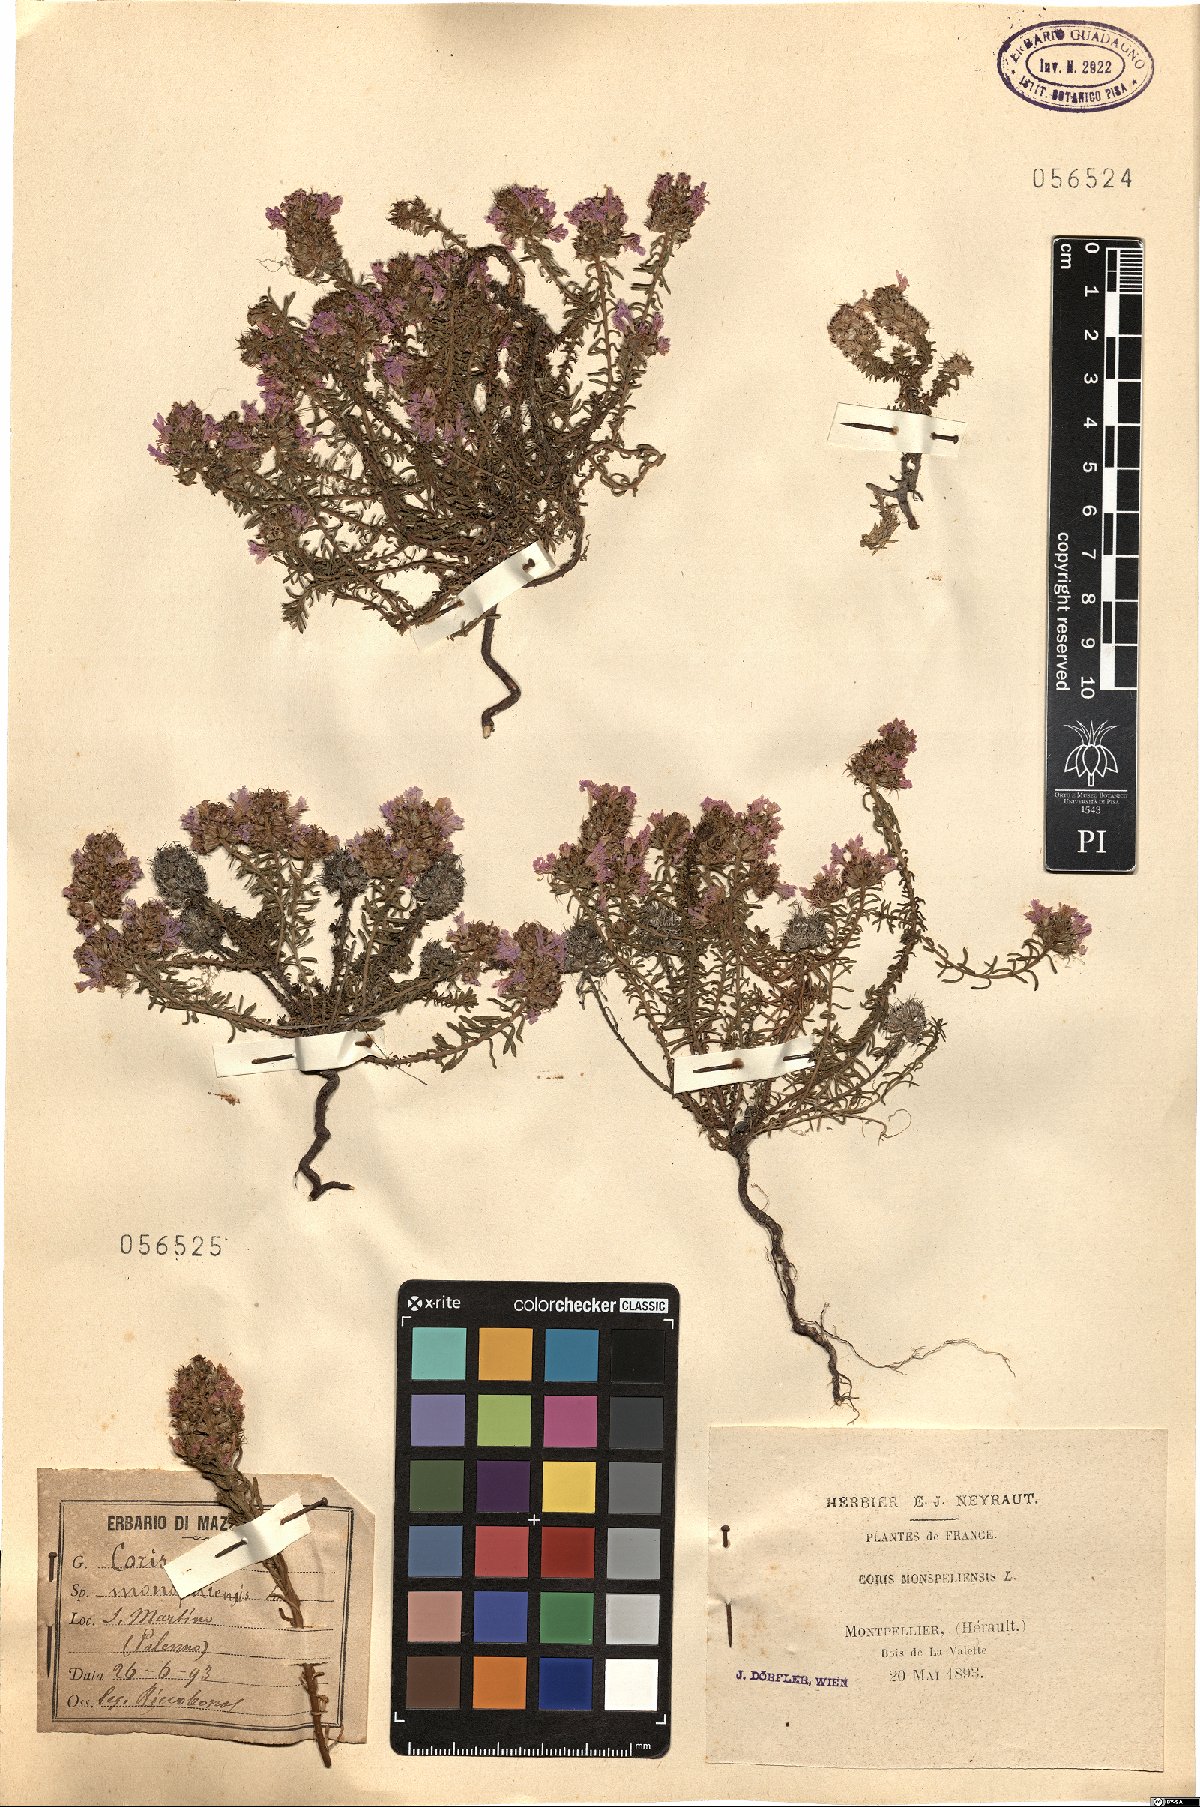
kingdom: Plantae
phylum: Tracheophyta
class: Magnoliopsida
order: Ericales
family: Primulaceae
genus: Coris
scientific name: Coris monspeliensis
